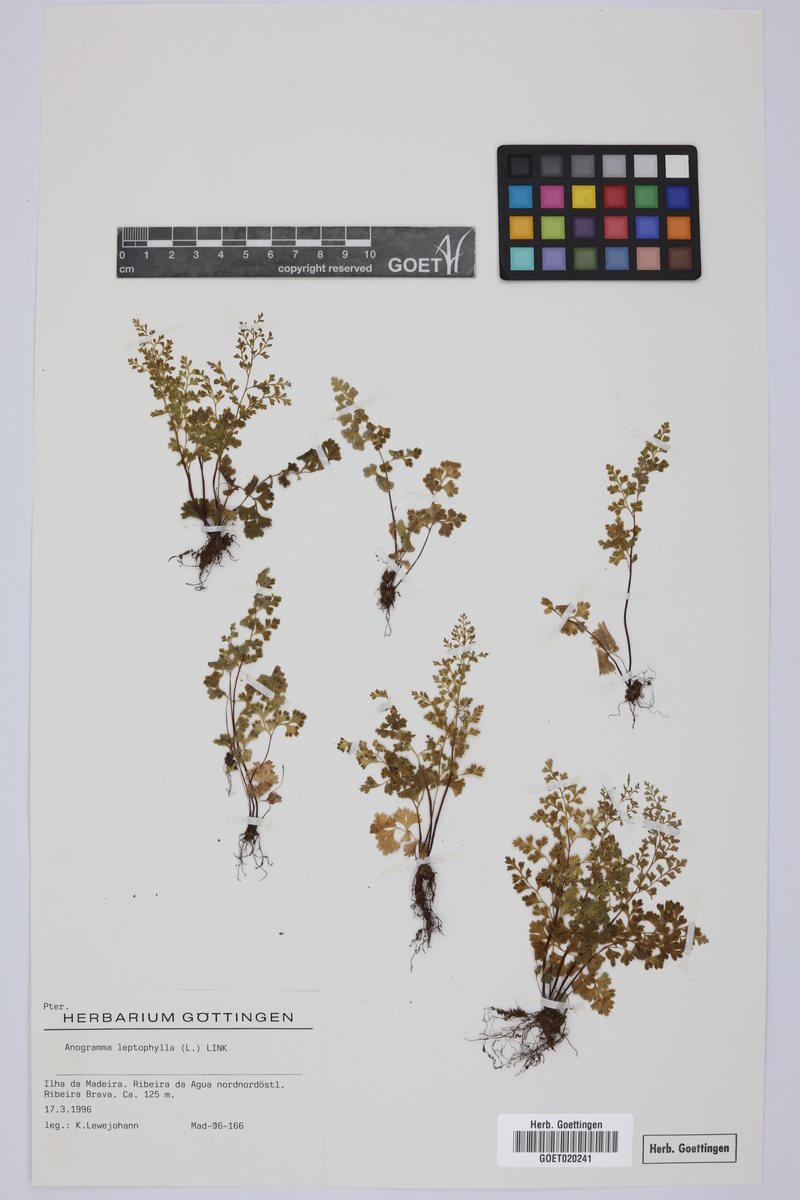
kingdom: Plantae
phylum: Tracheophyta
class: Polypodiopsida
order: Polypodiales
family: Pteridaceae
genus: Anogramma
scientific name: Anogramma leptophylla
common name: Jersey fern
